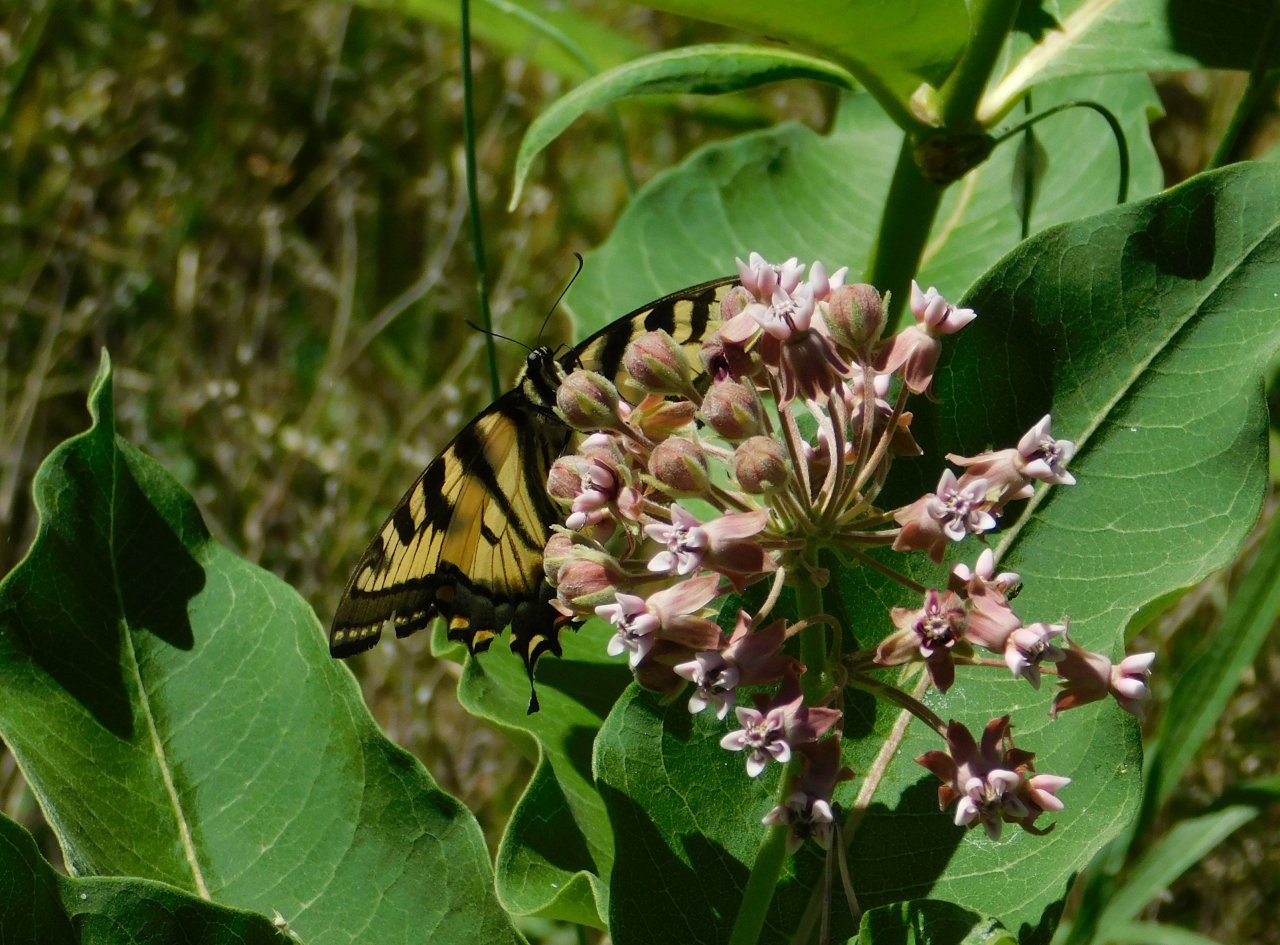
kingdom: Animalia
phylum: Arthropoda
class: Insecta
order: Lepidoptera
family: Papilionidae
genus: Pterourus
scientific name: Pterourus canadensis
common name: Canadian Tiger Swallowtail
